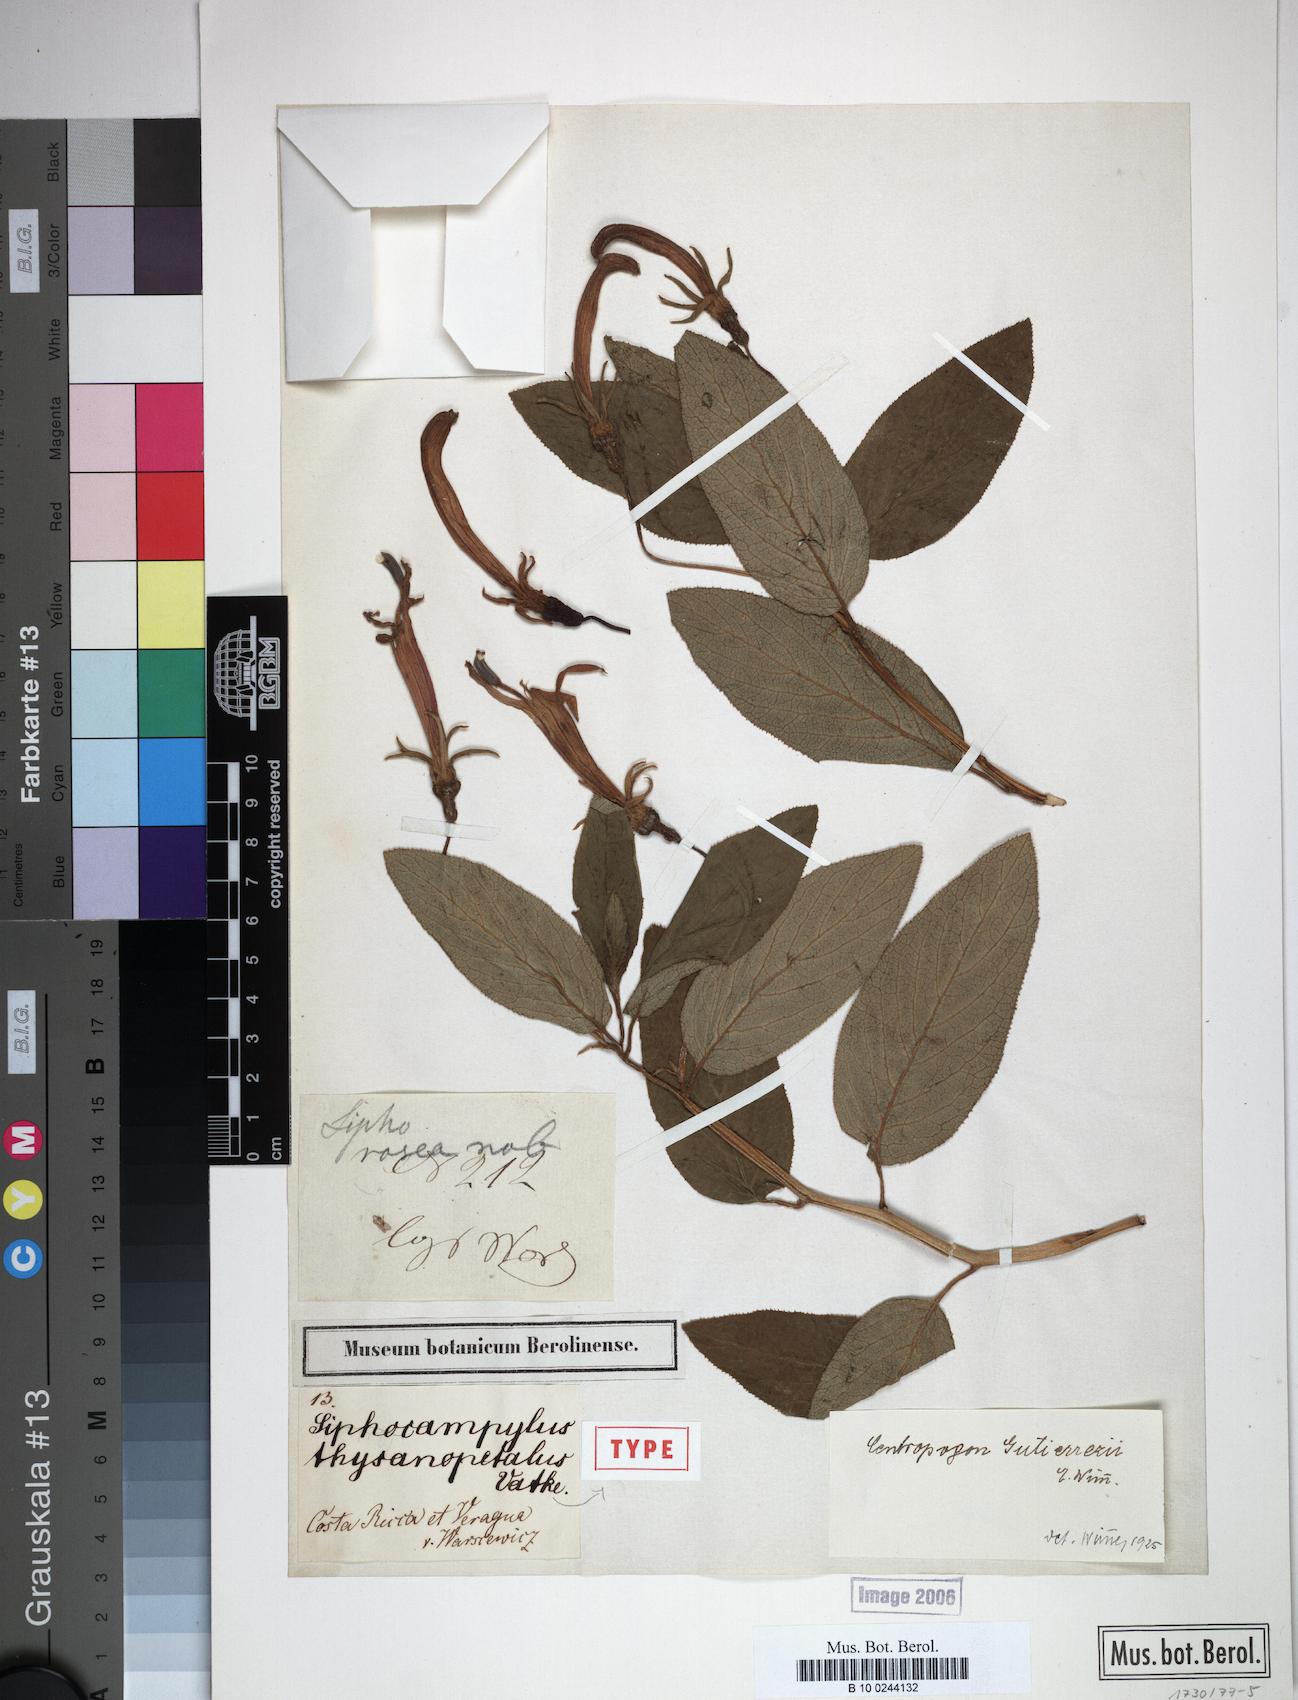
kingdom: Plantae
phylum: Tracheophyta
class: Magnoliopsida
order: Asterales
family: Campanulaceae
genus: Centropogon
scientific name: Centropogon gutierrezii
